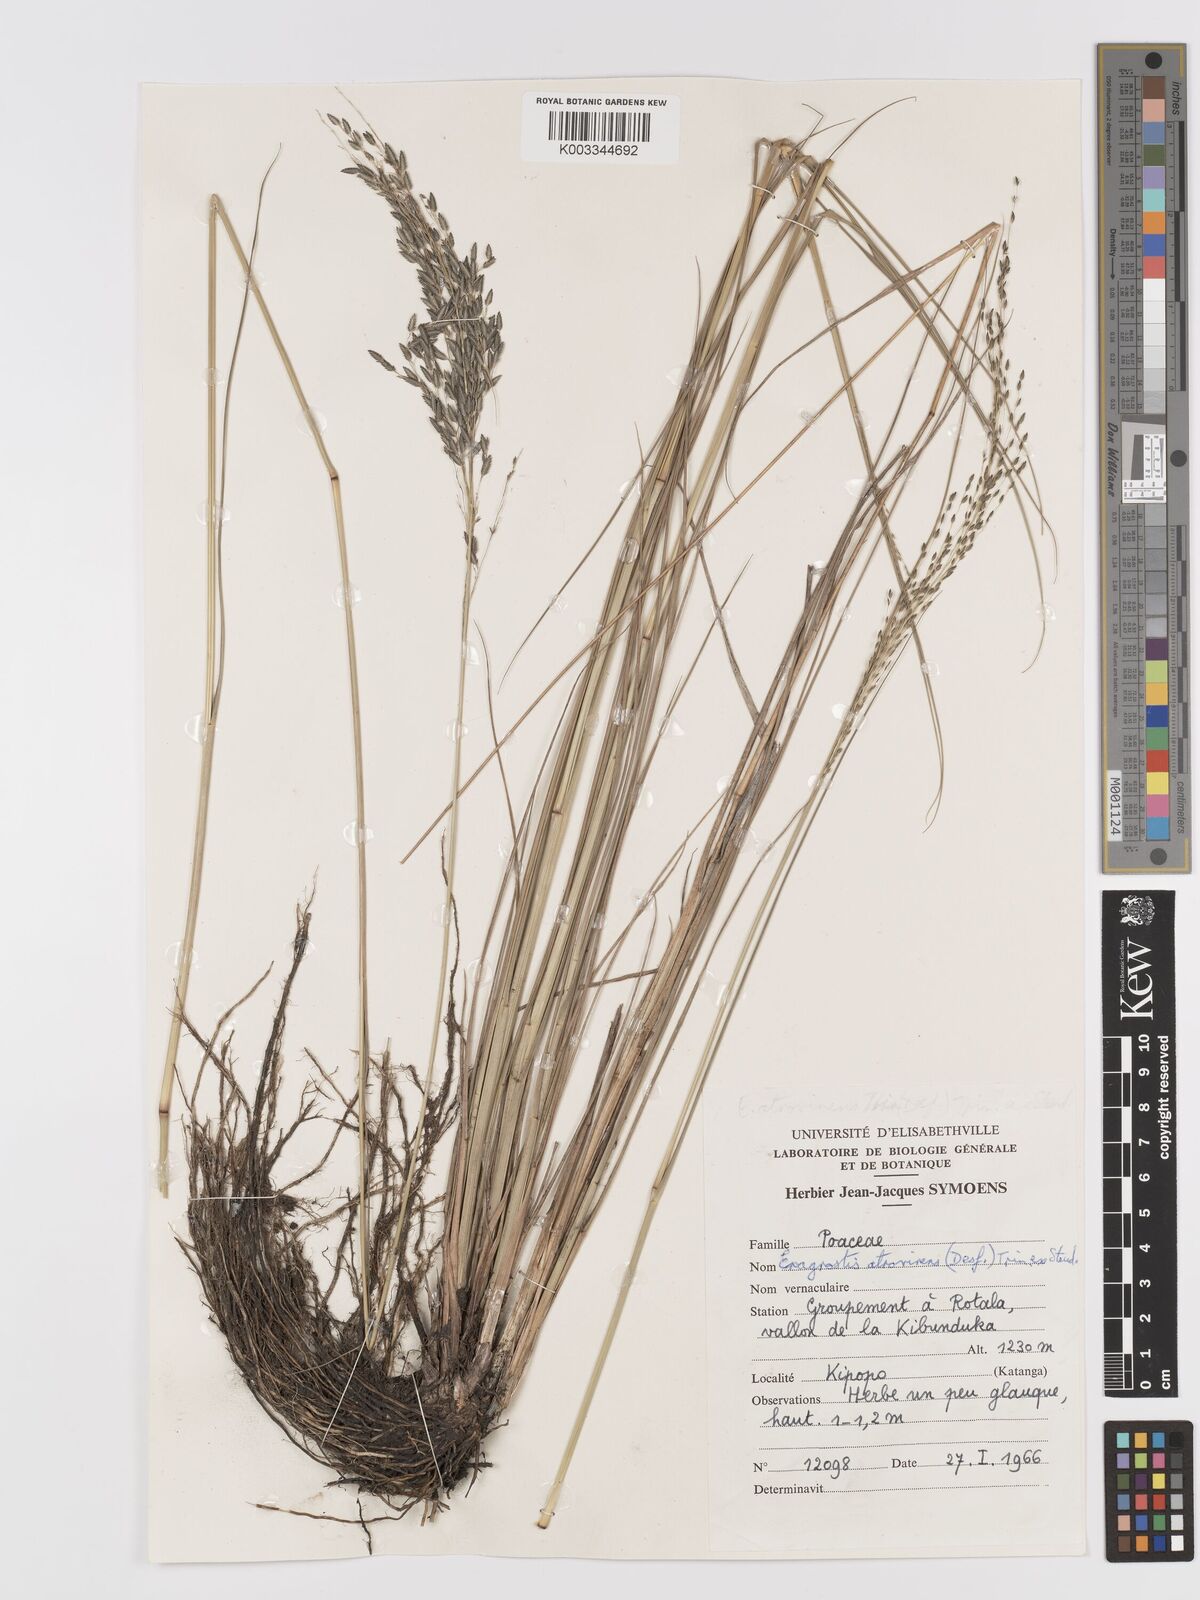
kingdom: Plantae
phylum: Tracheophyta
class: Liliopsida
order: Poales
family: Poaceae
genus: Eragrostis
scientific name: Eragrostis atrovirens
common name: Thalia lovegrass
